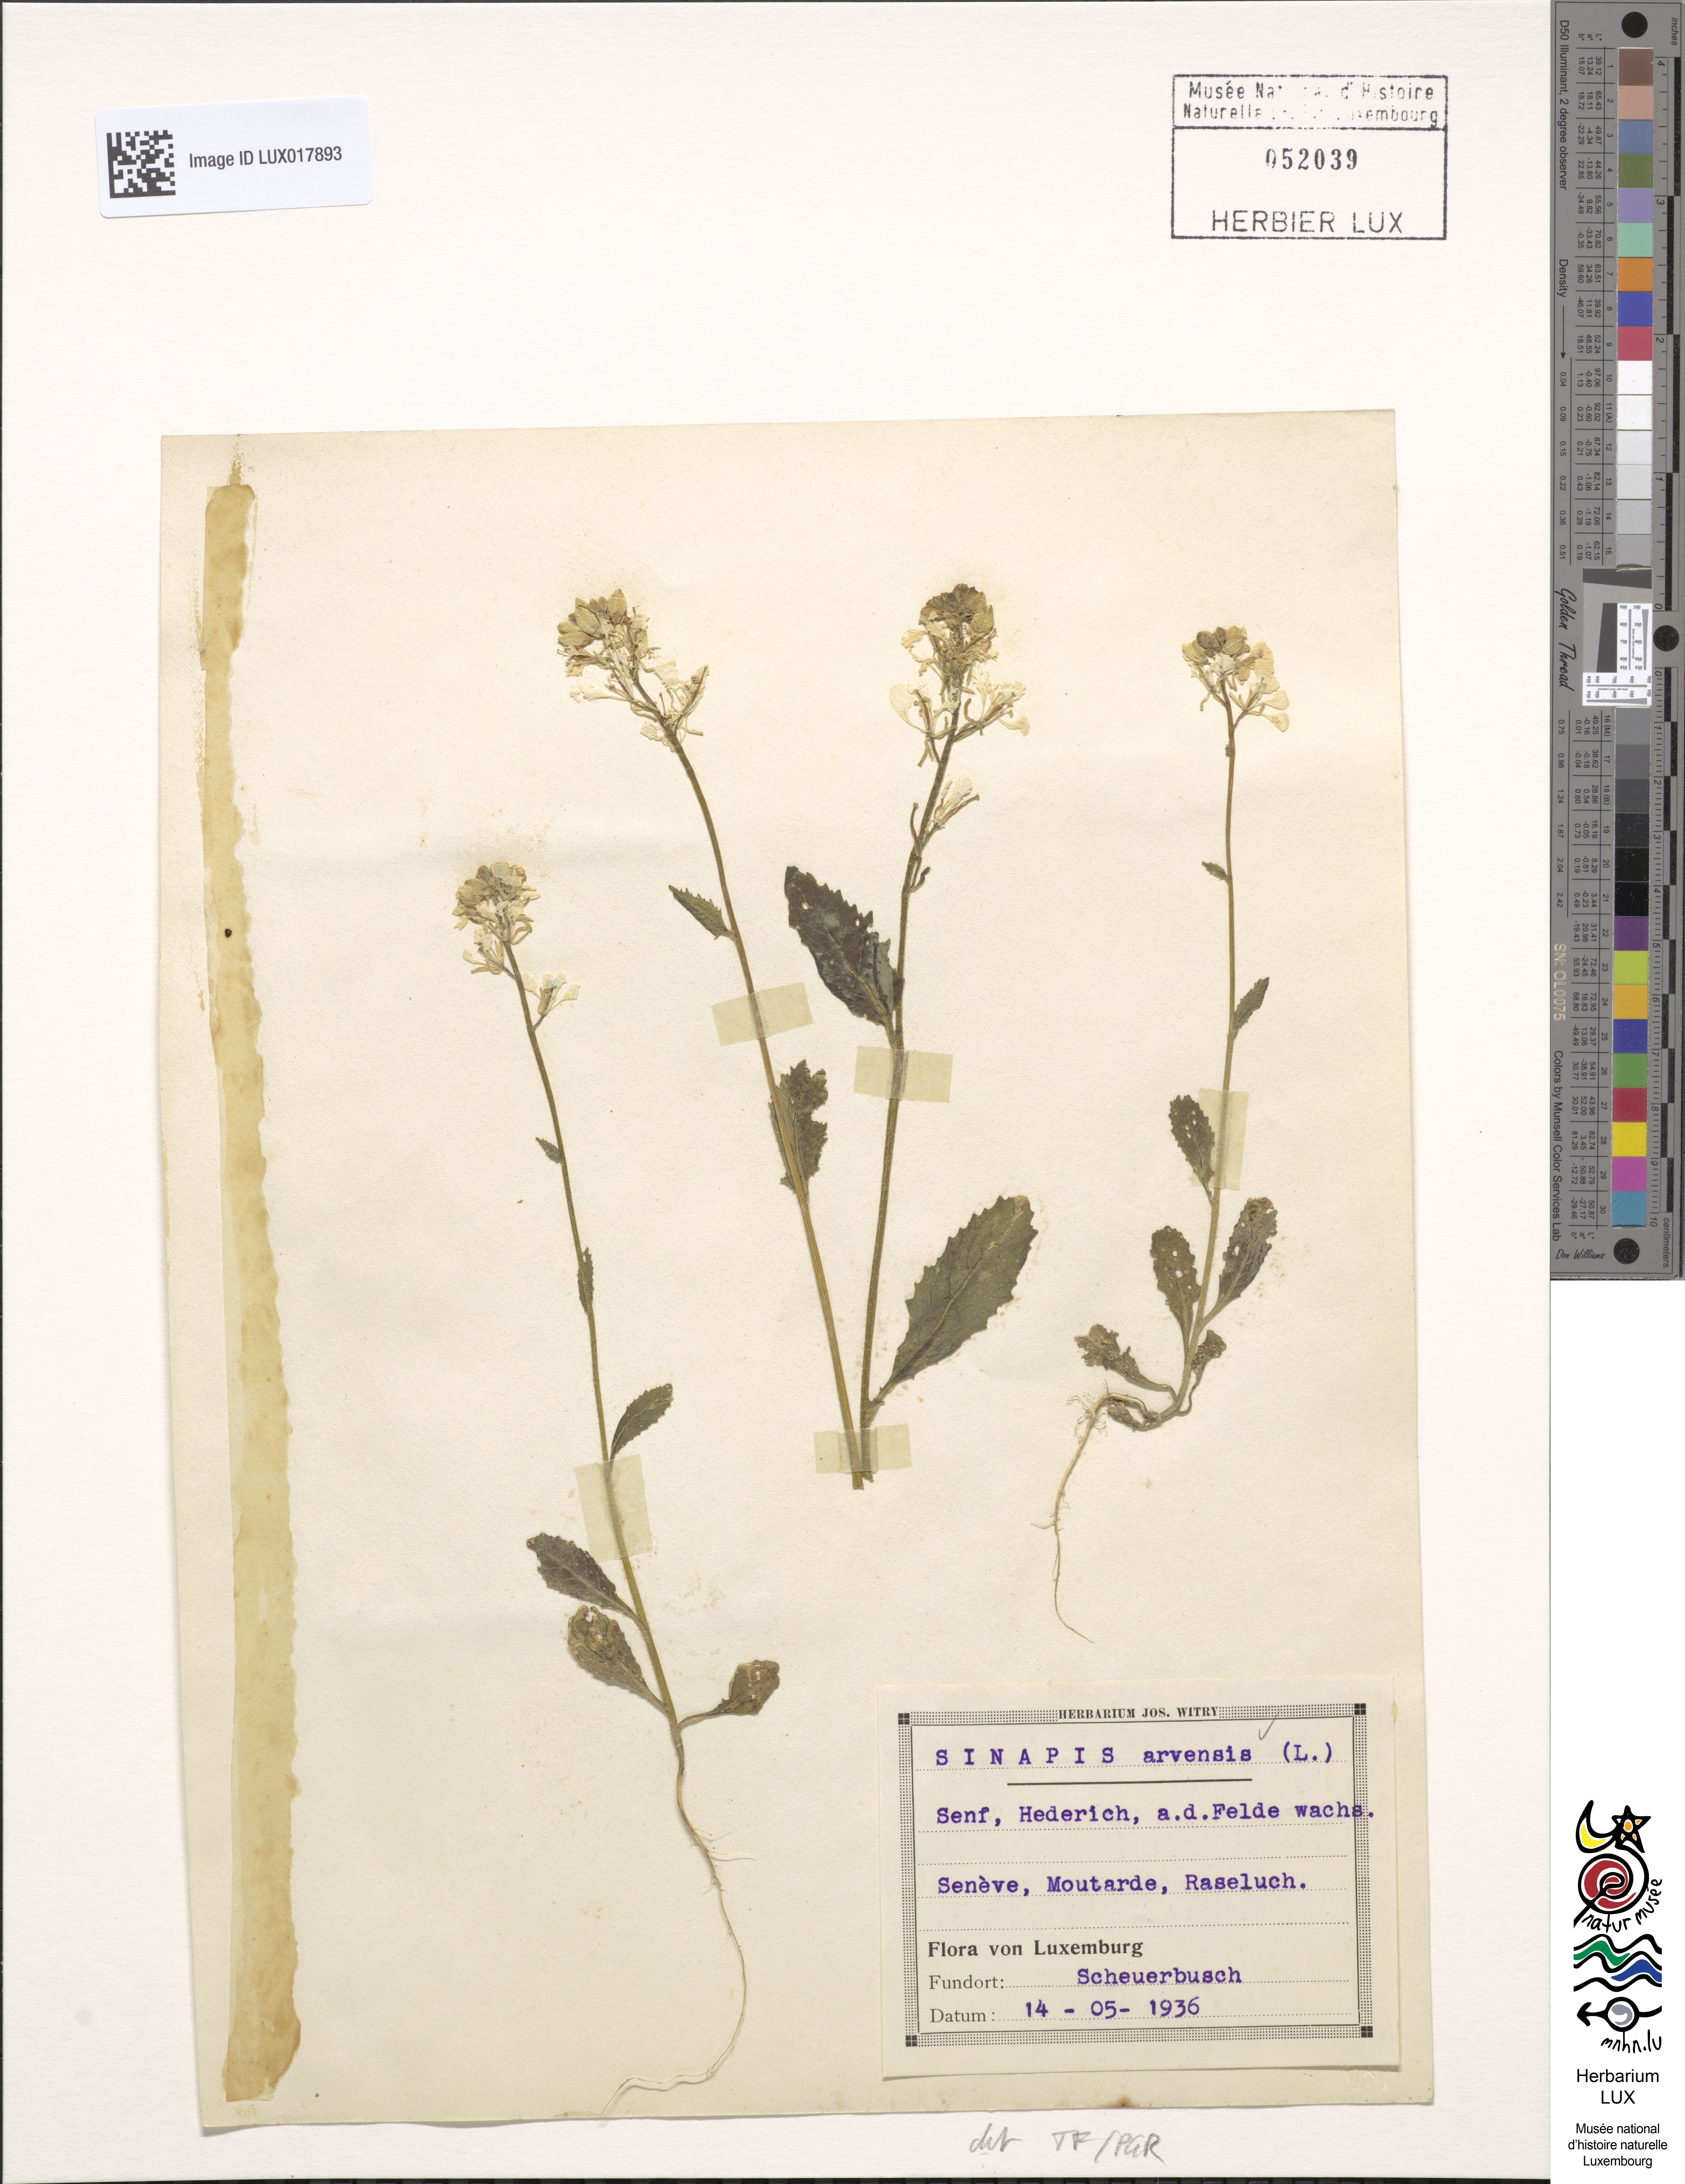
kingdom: Plantae
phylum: Tracheophyta
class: Magnoliopsida
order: Brassicales
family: Brassicaceae
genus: Sinapis
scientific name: Sinapis arvensis
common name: Charlock
